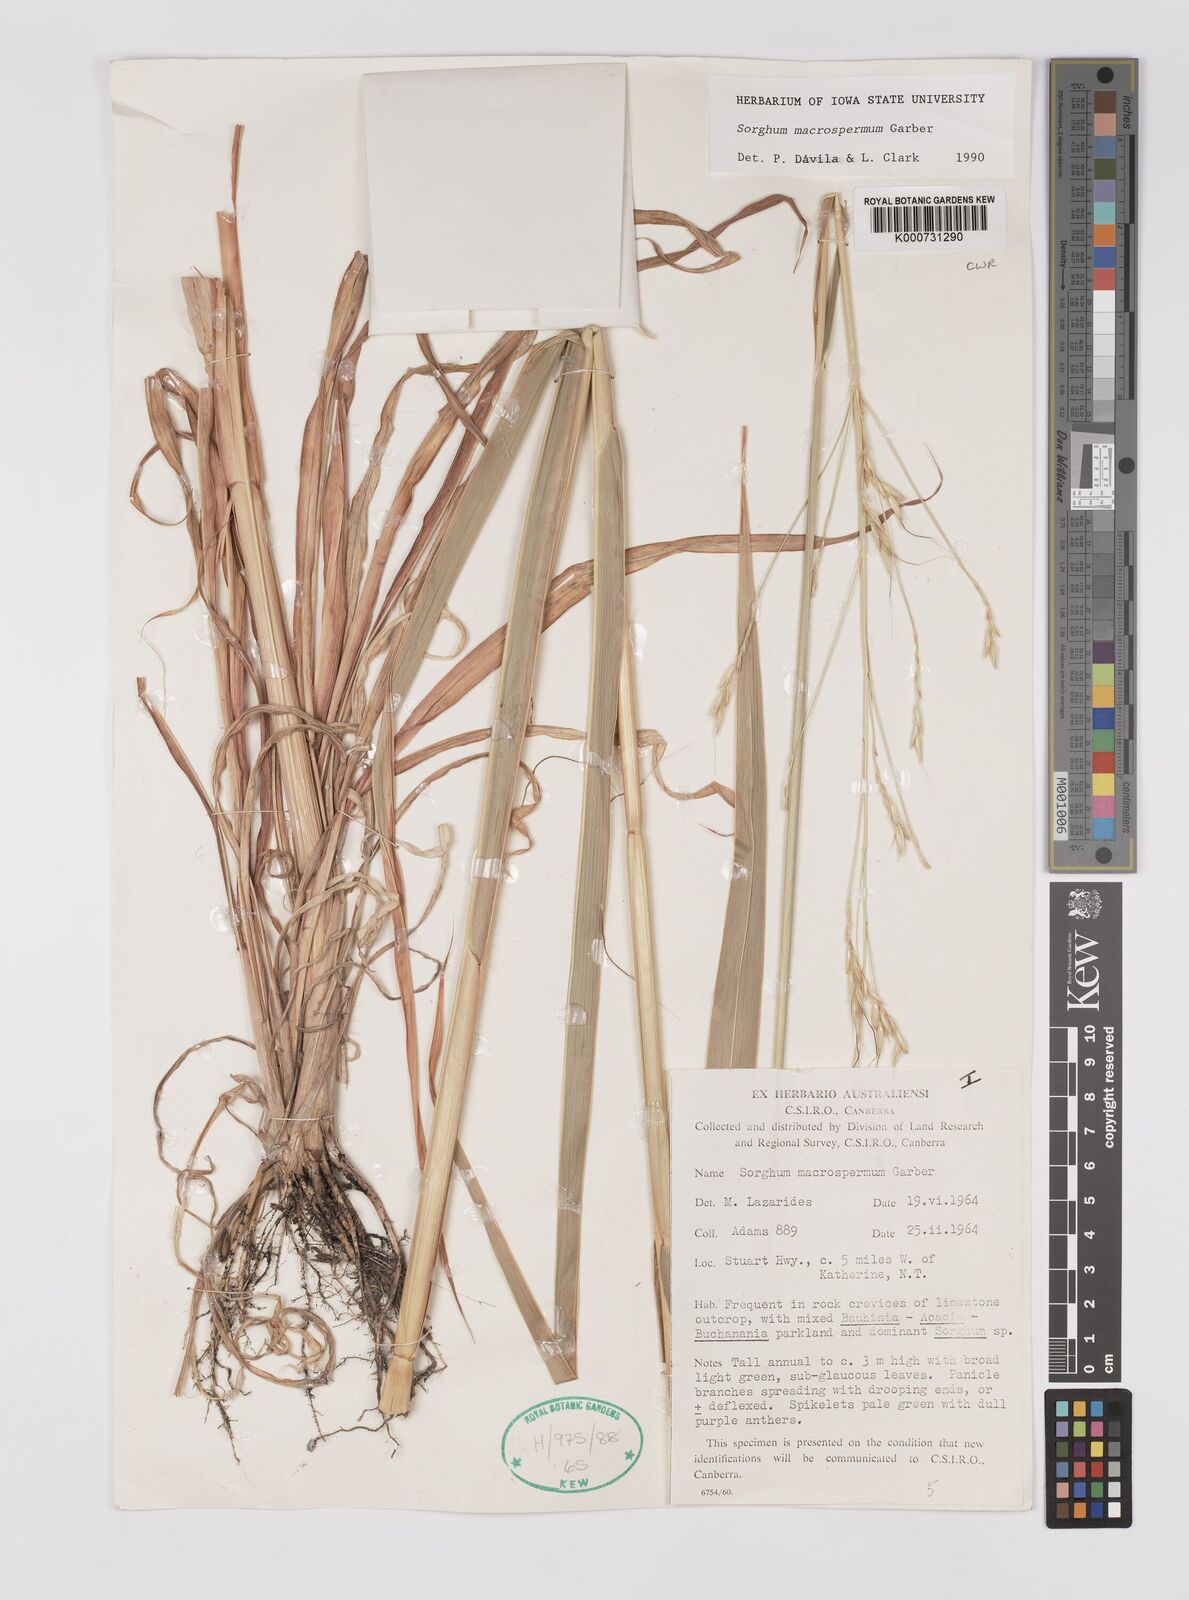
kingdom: Plantae
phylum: Tracheophyta
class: Liliopsida
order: Poales
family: Poaceae
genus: Sorghum
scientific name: Sorghum macrospermum
